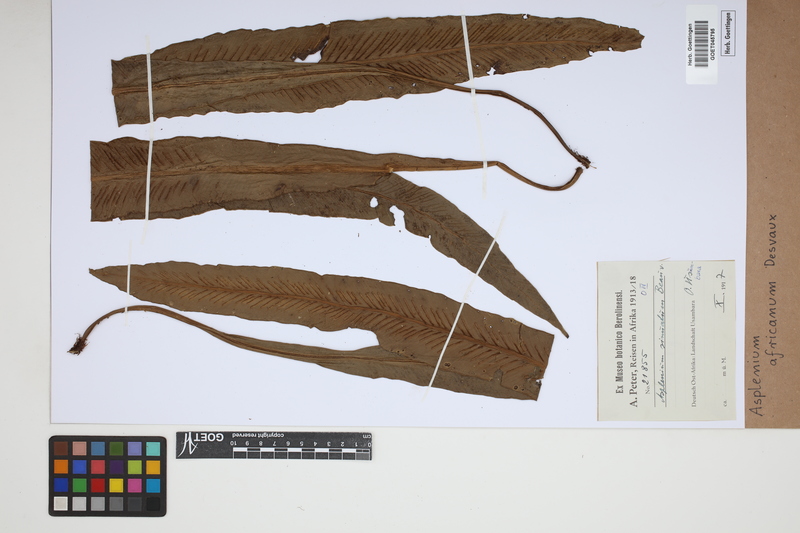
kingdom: Plantae
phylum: Tracheophyta
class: Polypodiopsida
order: Polypodiales
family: Aspleniaceae
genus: Asplenium
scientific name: Asplenium africanum
